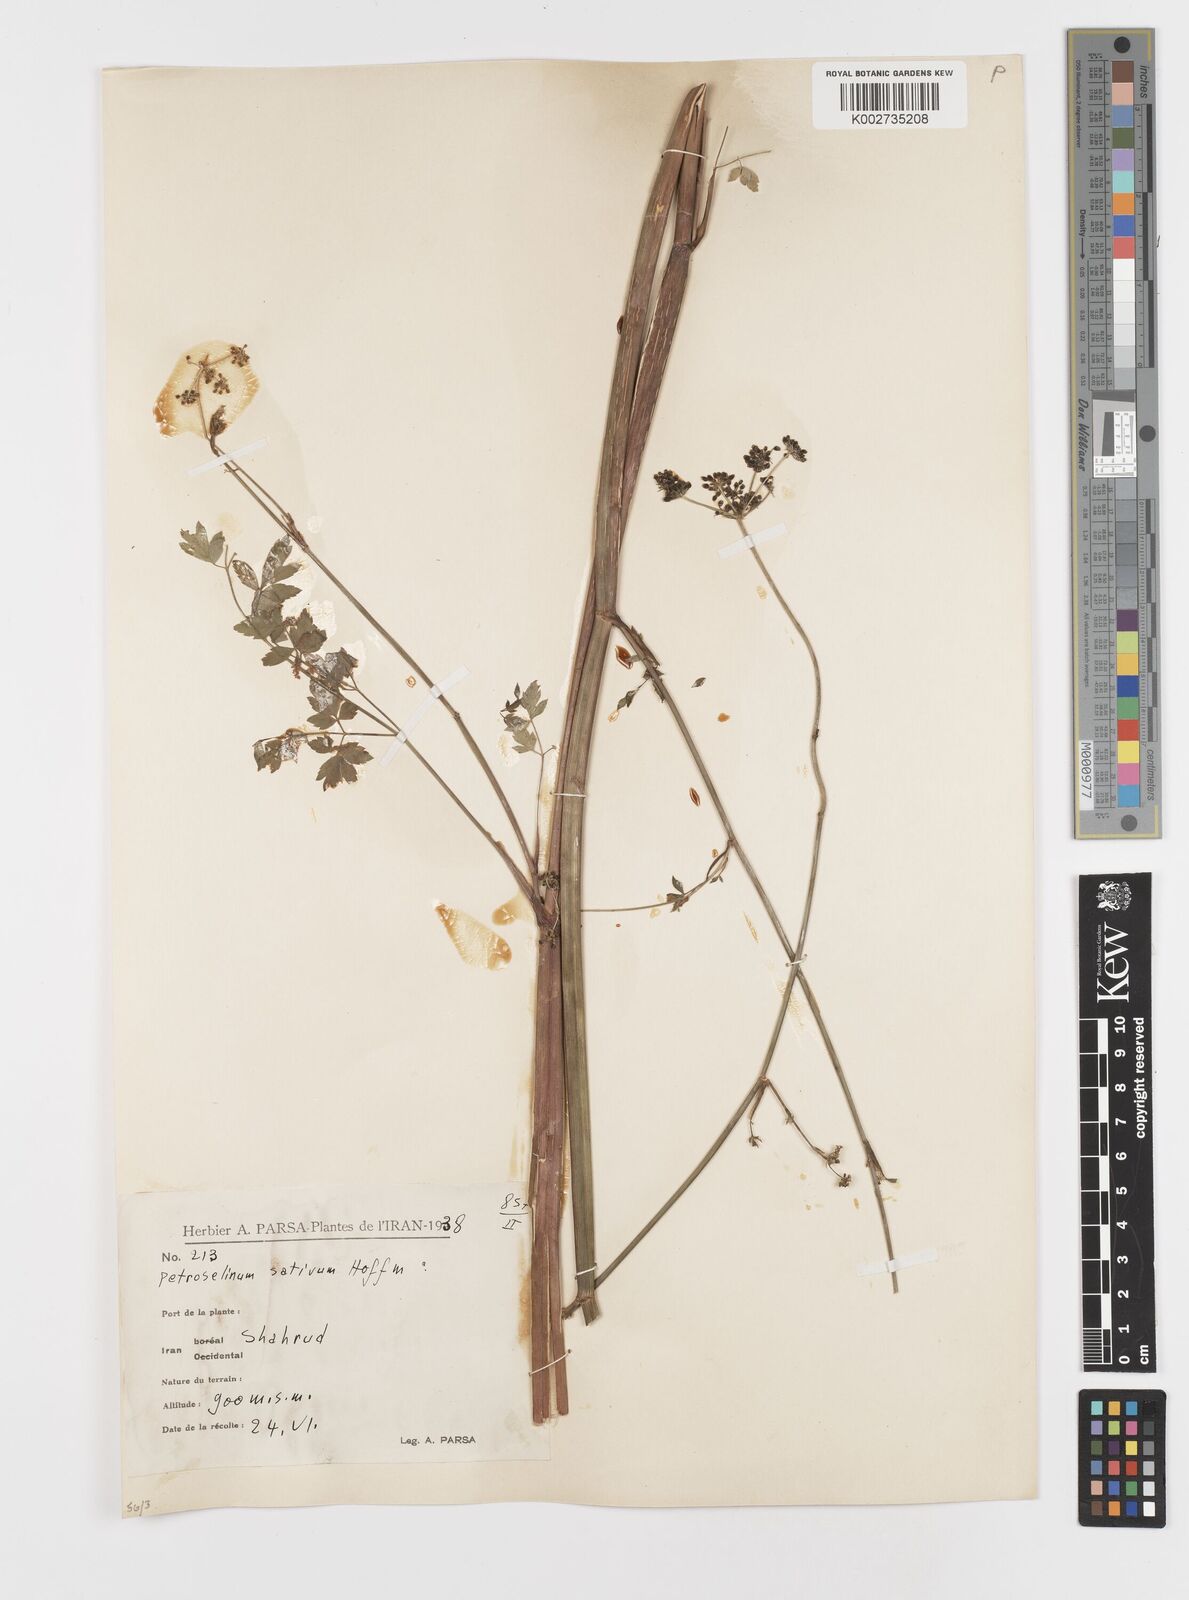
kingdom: Plantae
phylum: Tracheophyta
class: Magnoliopsida
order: Apiales
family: Apiaceae
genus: Petroselinum
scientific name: Petroselinum crispum
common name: Parsley
